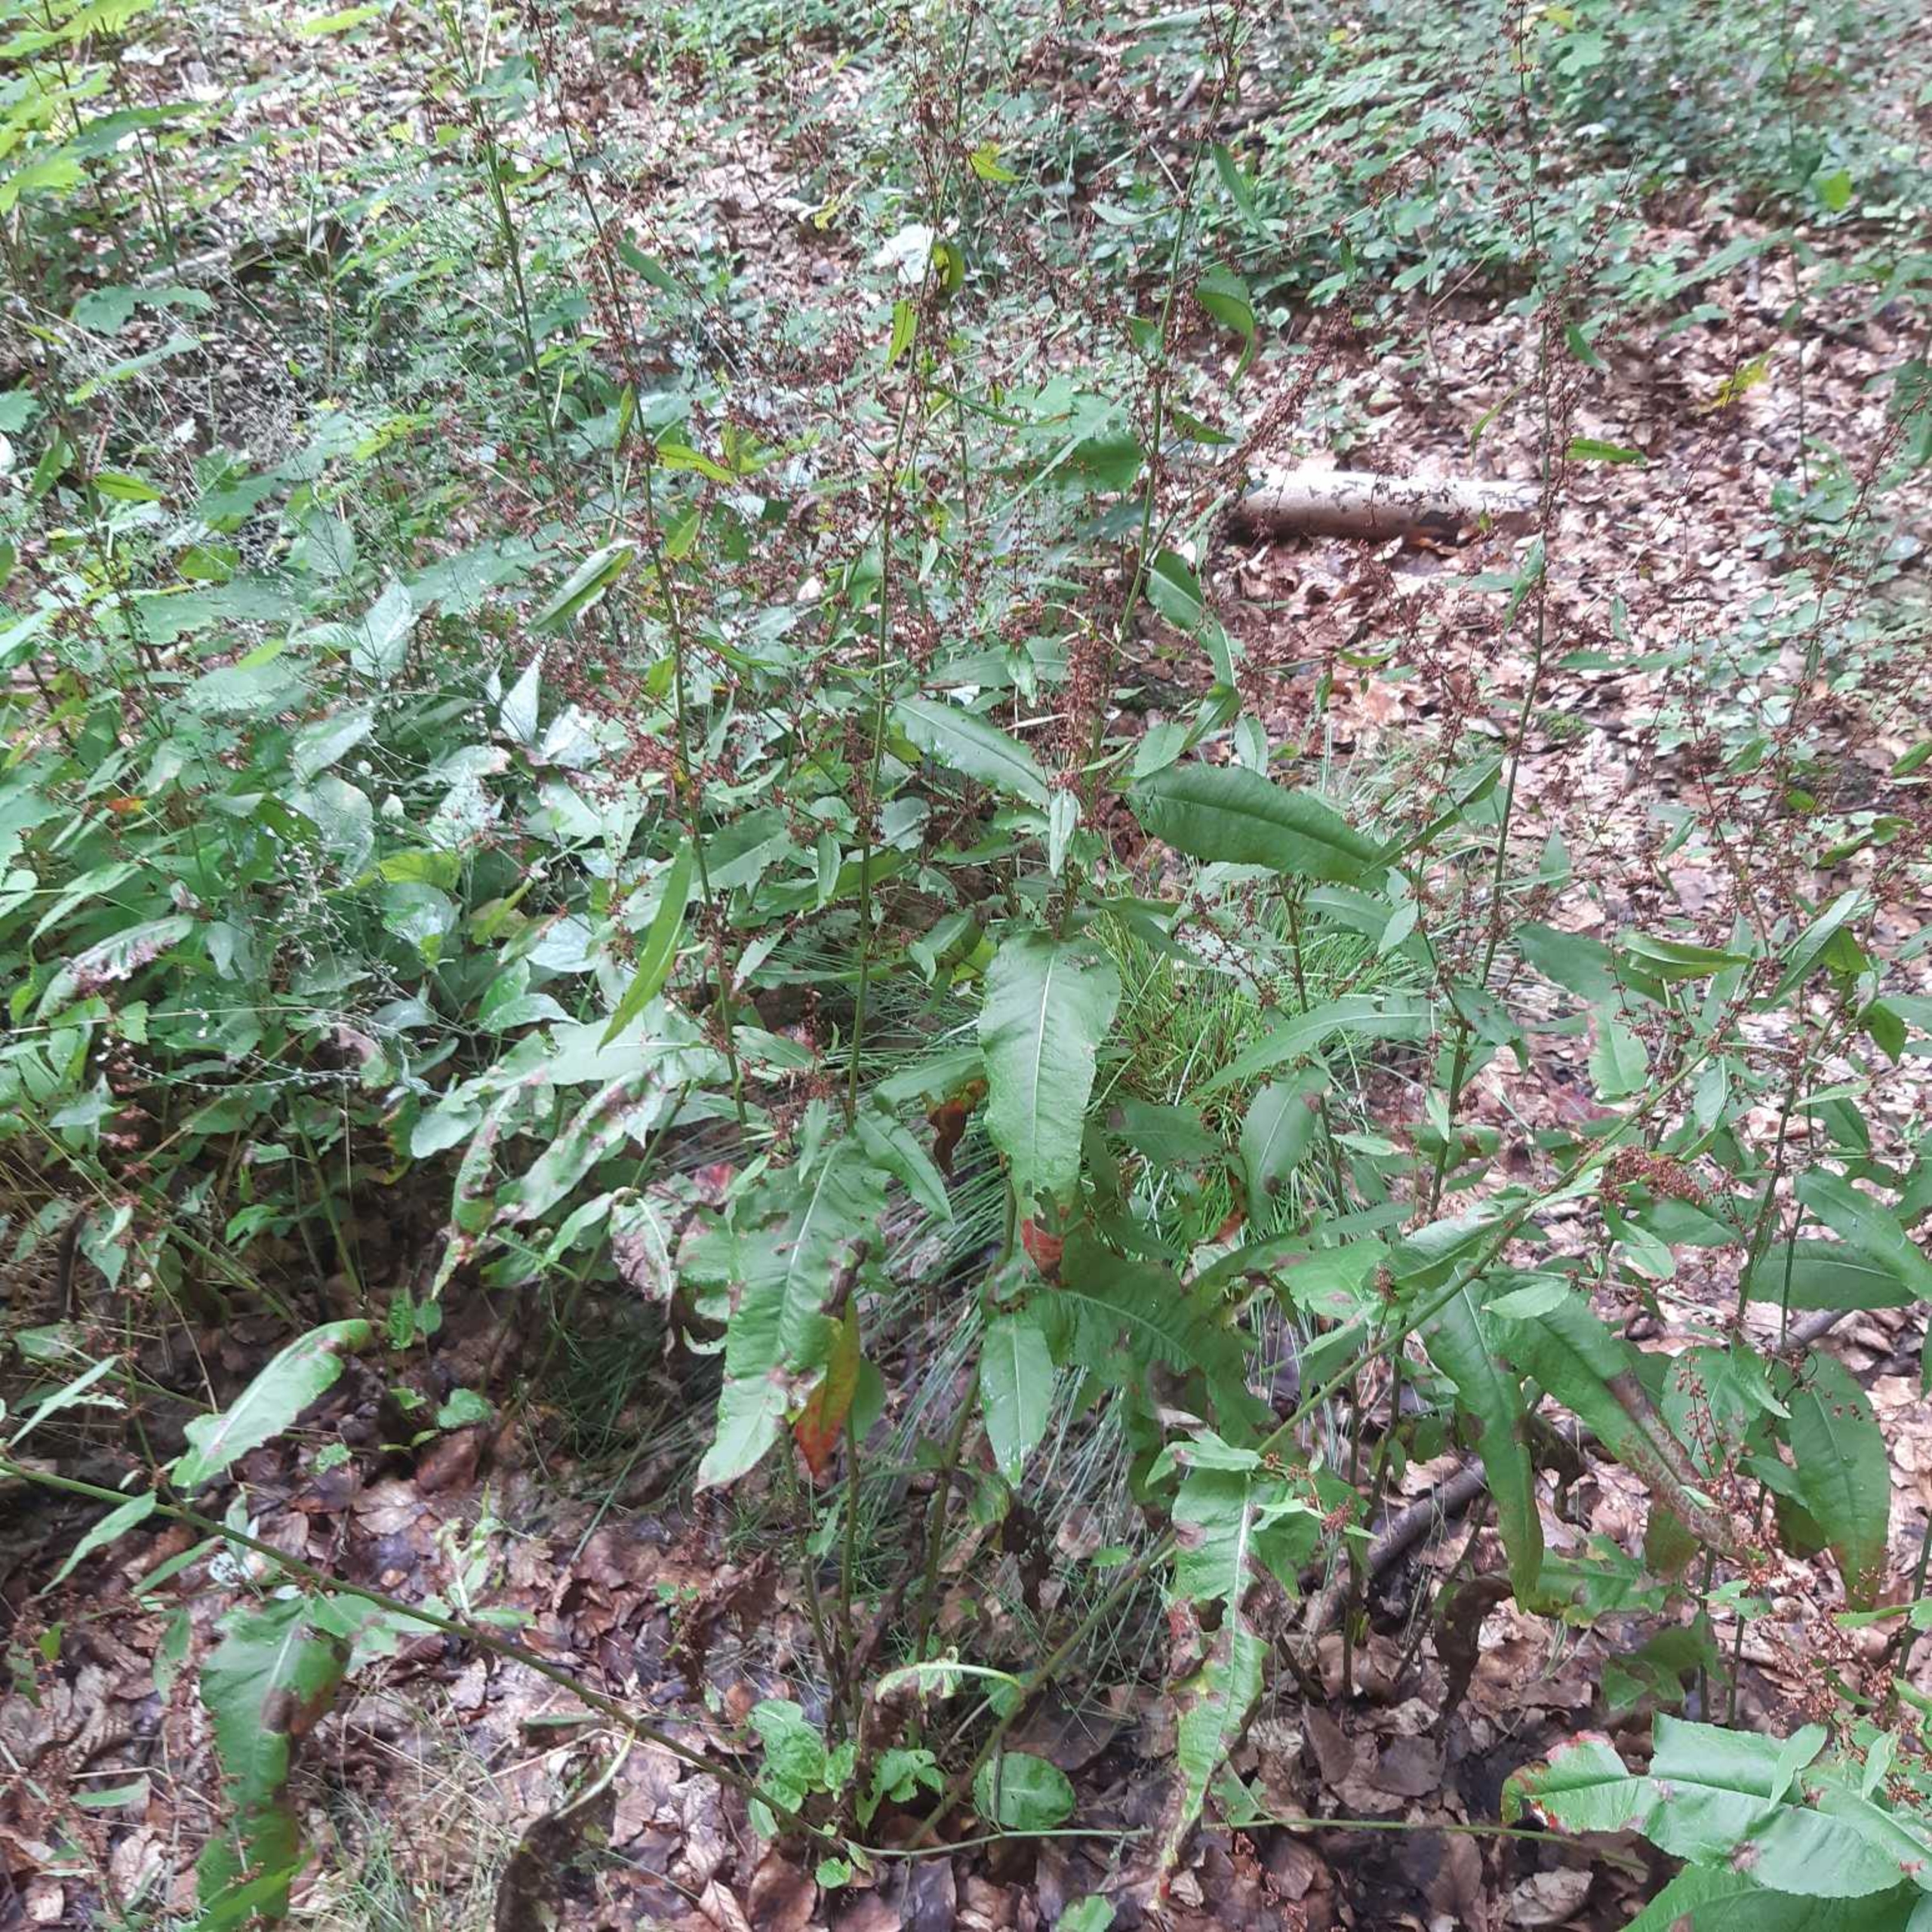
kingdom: Plantae
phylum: Tracheophyta
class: Magnoliopsida
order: Caryophyllales
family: Polygonaceae
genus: Rumex
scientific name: Rumex sanguineus
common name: Skov-skræppe
